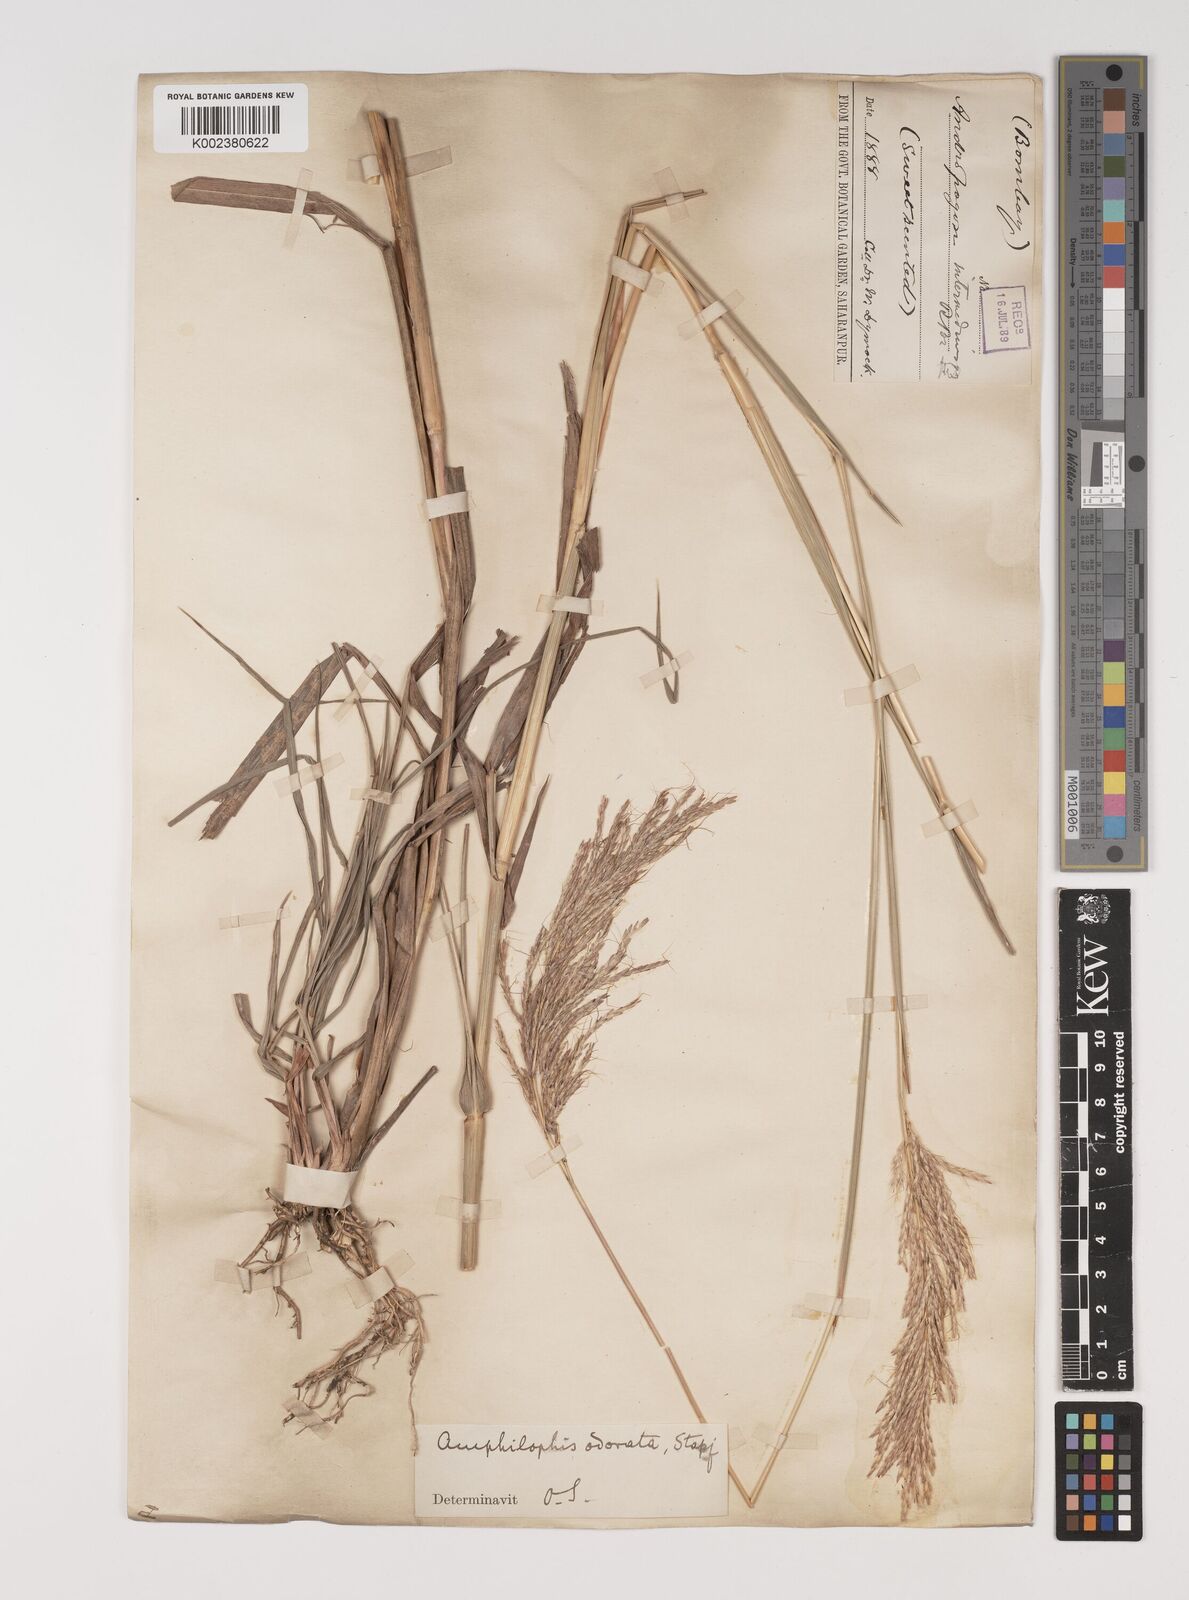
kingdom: Plantae
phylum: Tracheophyta
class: Liliopsida
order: Poales
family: Poaceae
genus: Bothriochloa
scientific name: Bothriochloa bladhii
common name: Caucasian bluestem
